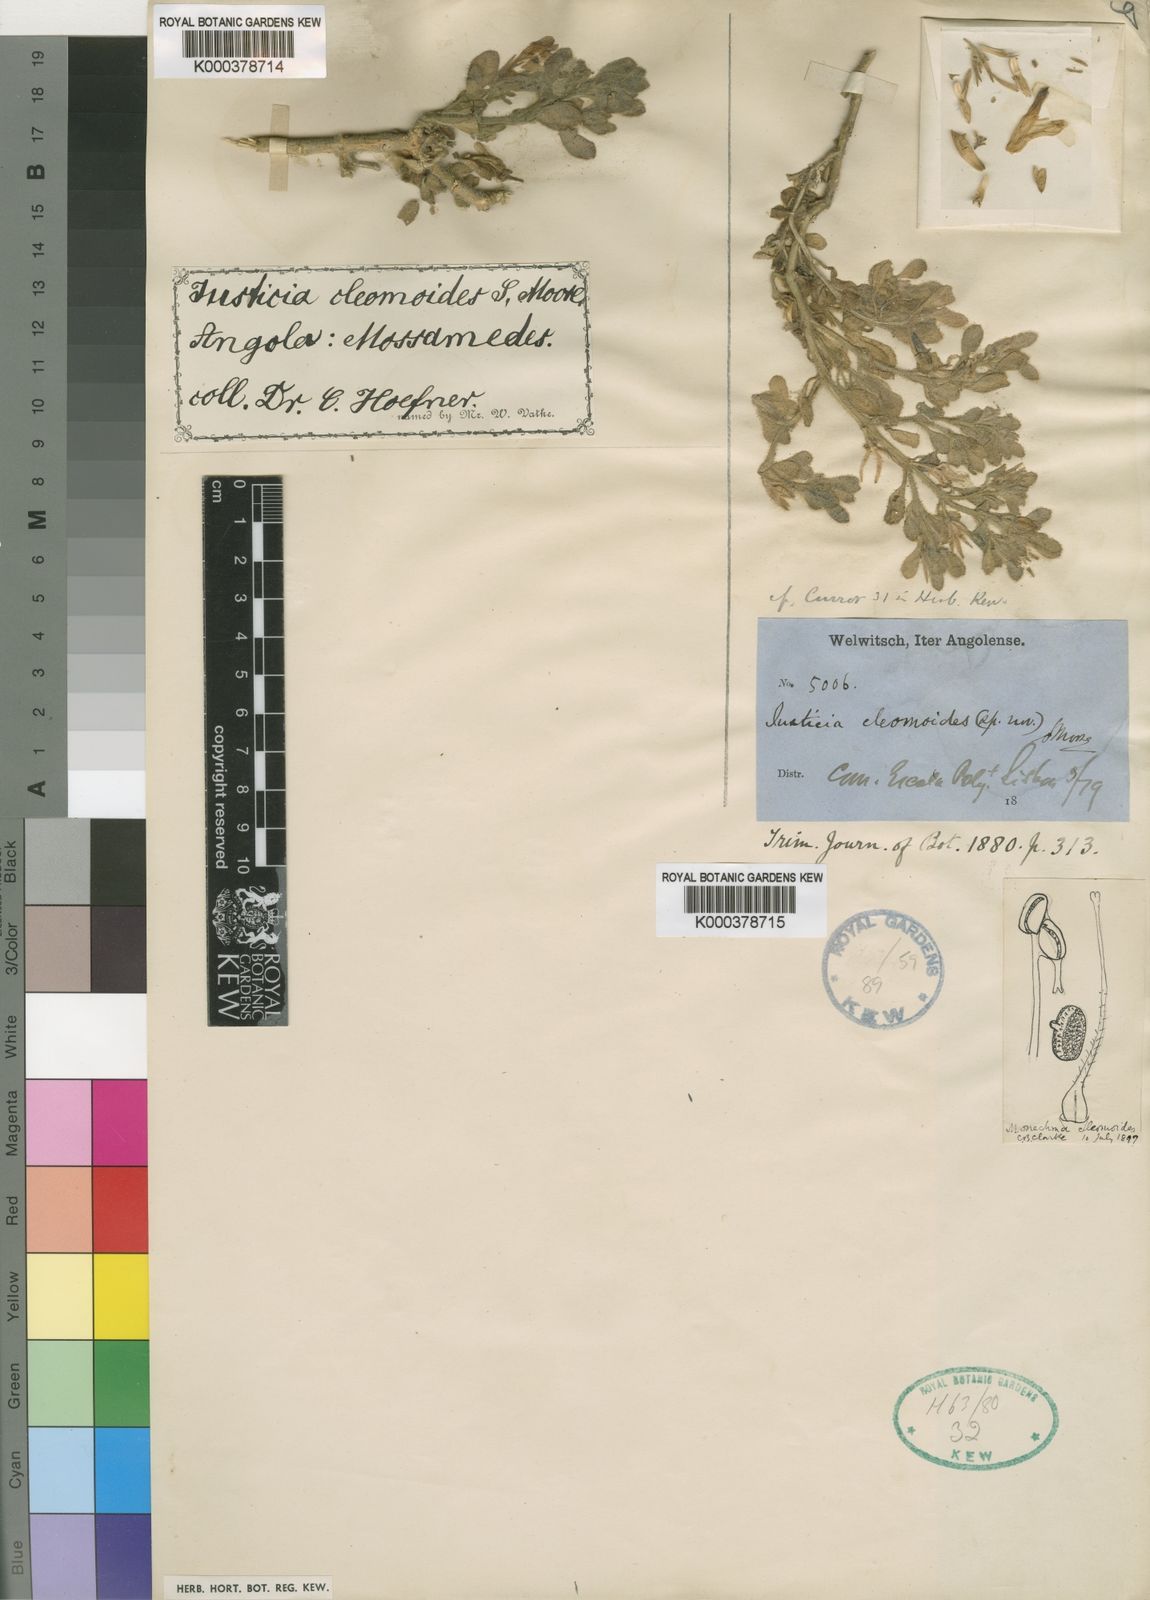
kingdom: Plantae
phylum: Tracheophyta
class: Magnoliopsida
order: Lamiales
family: Acanthaceae
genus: Monechma
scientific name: Monechma cleomoides
